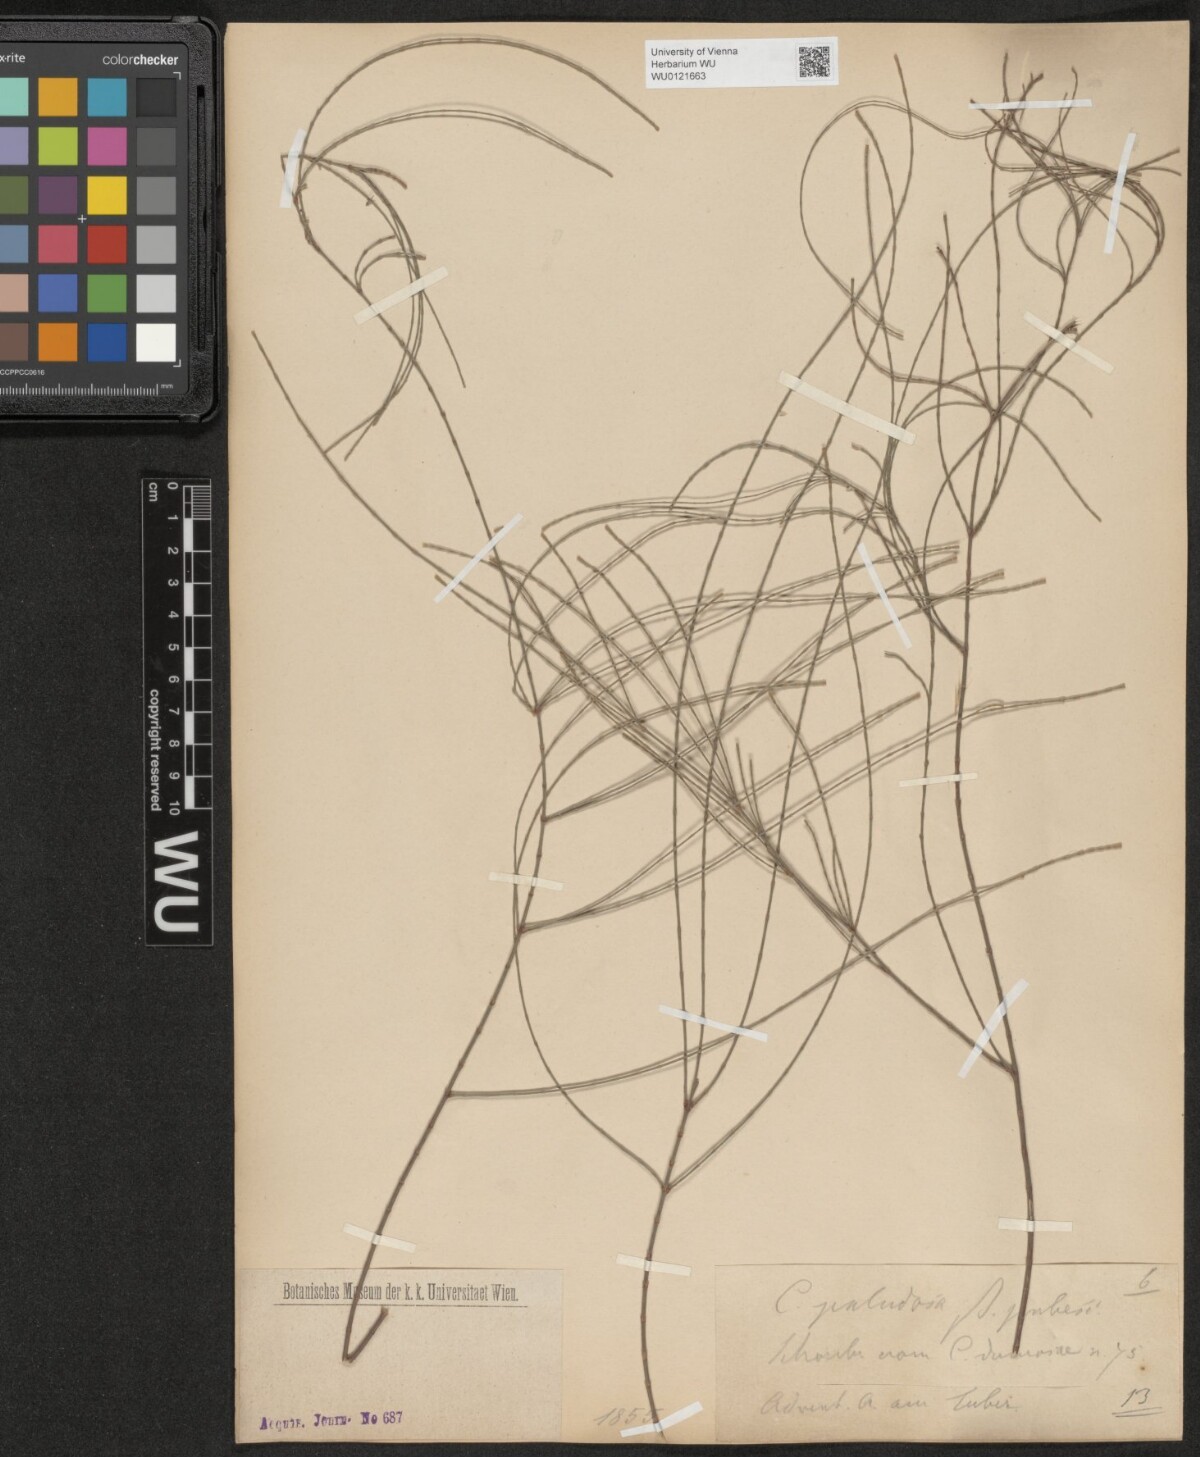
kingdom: Plantae
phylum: Tracheophyta
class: Magnoliopsida
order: Fagales
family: Casuarinaceae
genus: Allocasuarina
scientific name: Allocasuarina paludosa
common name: Scrub she-oak
